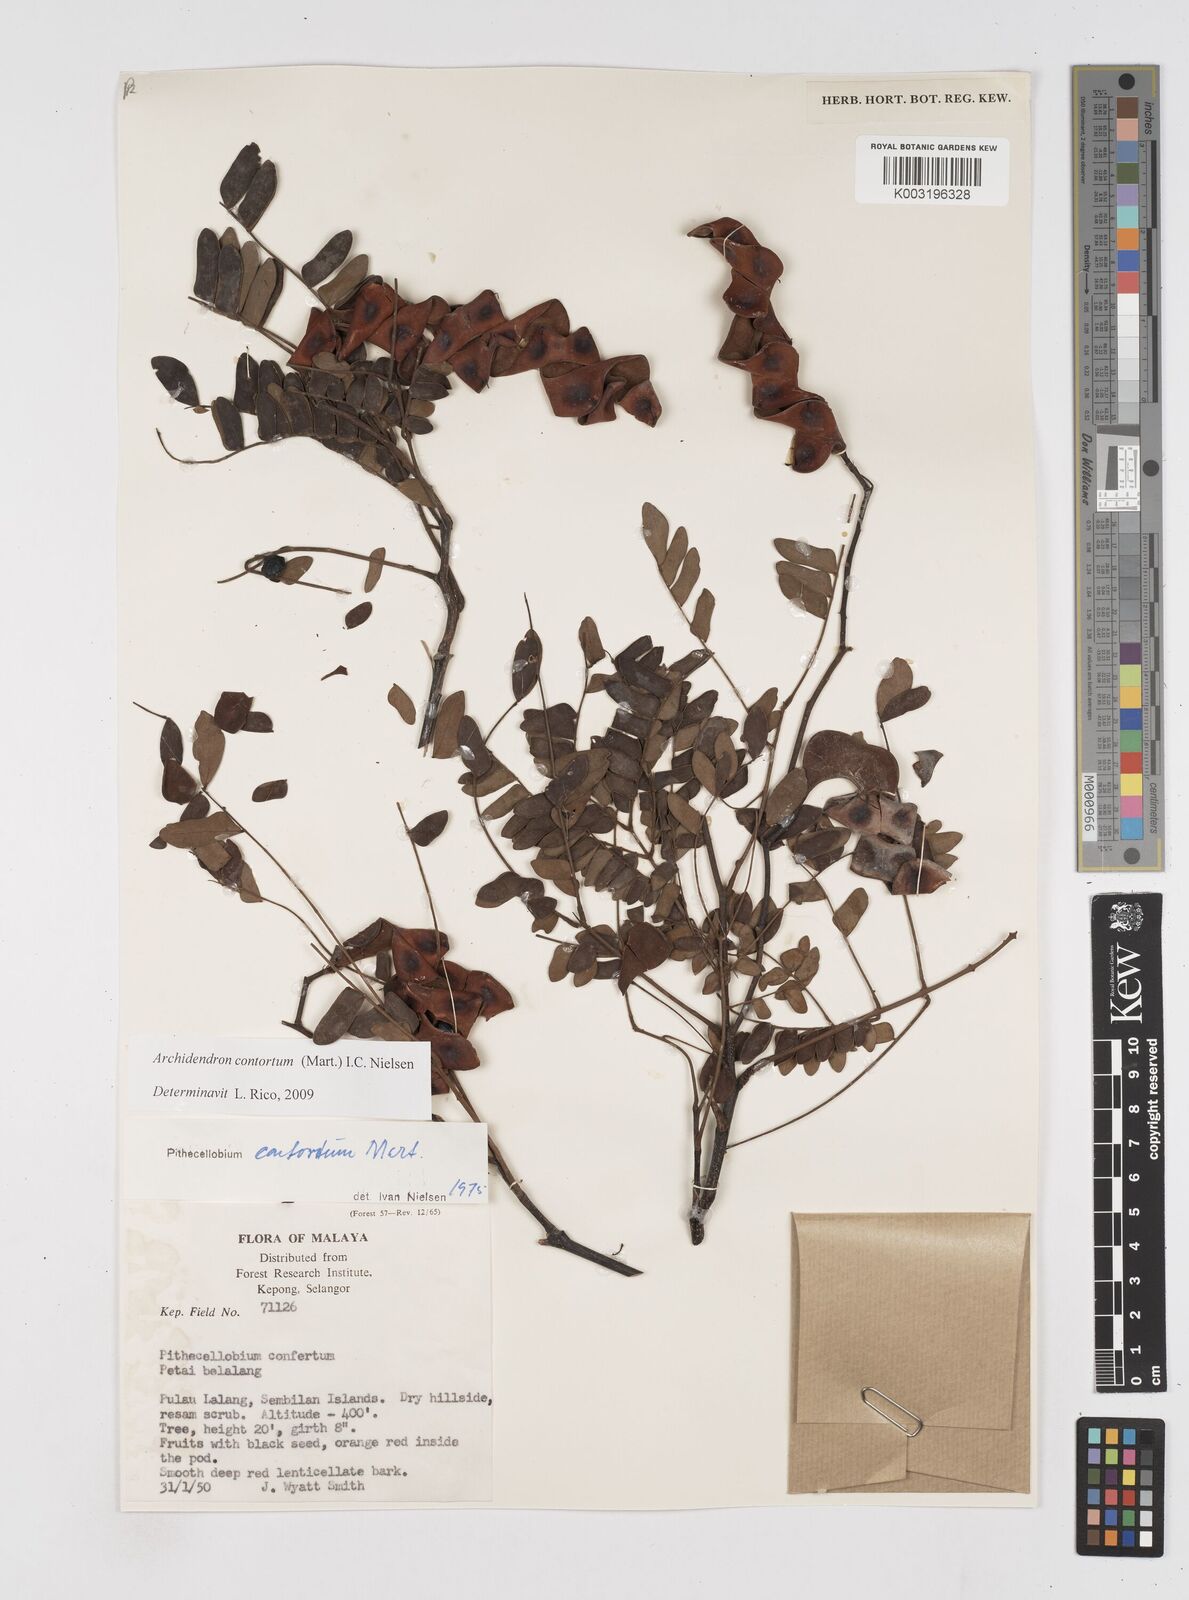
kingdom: Plantae
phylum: Tracheophyta
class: Magnoliopsida
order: Fabales
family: Fabaceae
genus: Archidendron
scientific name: Archidendron contortum
